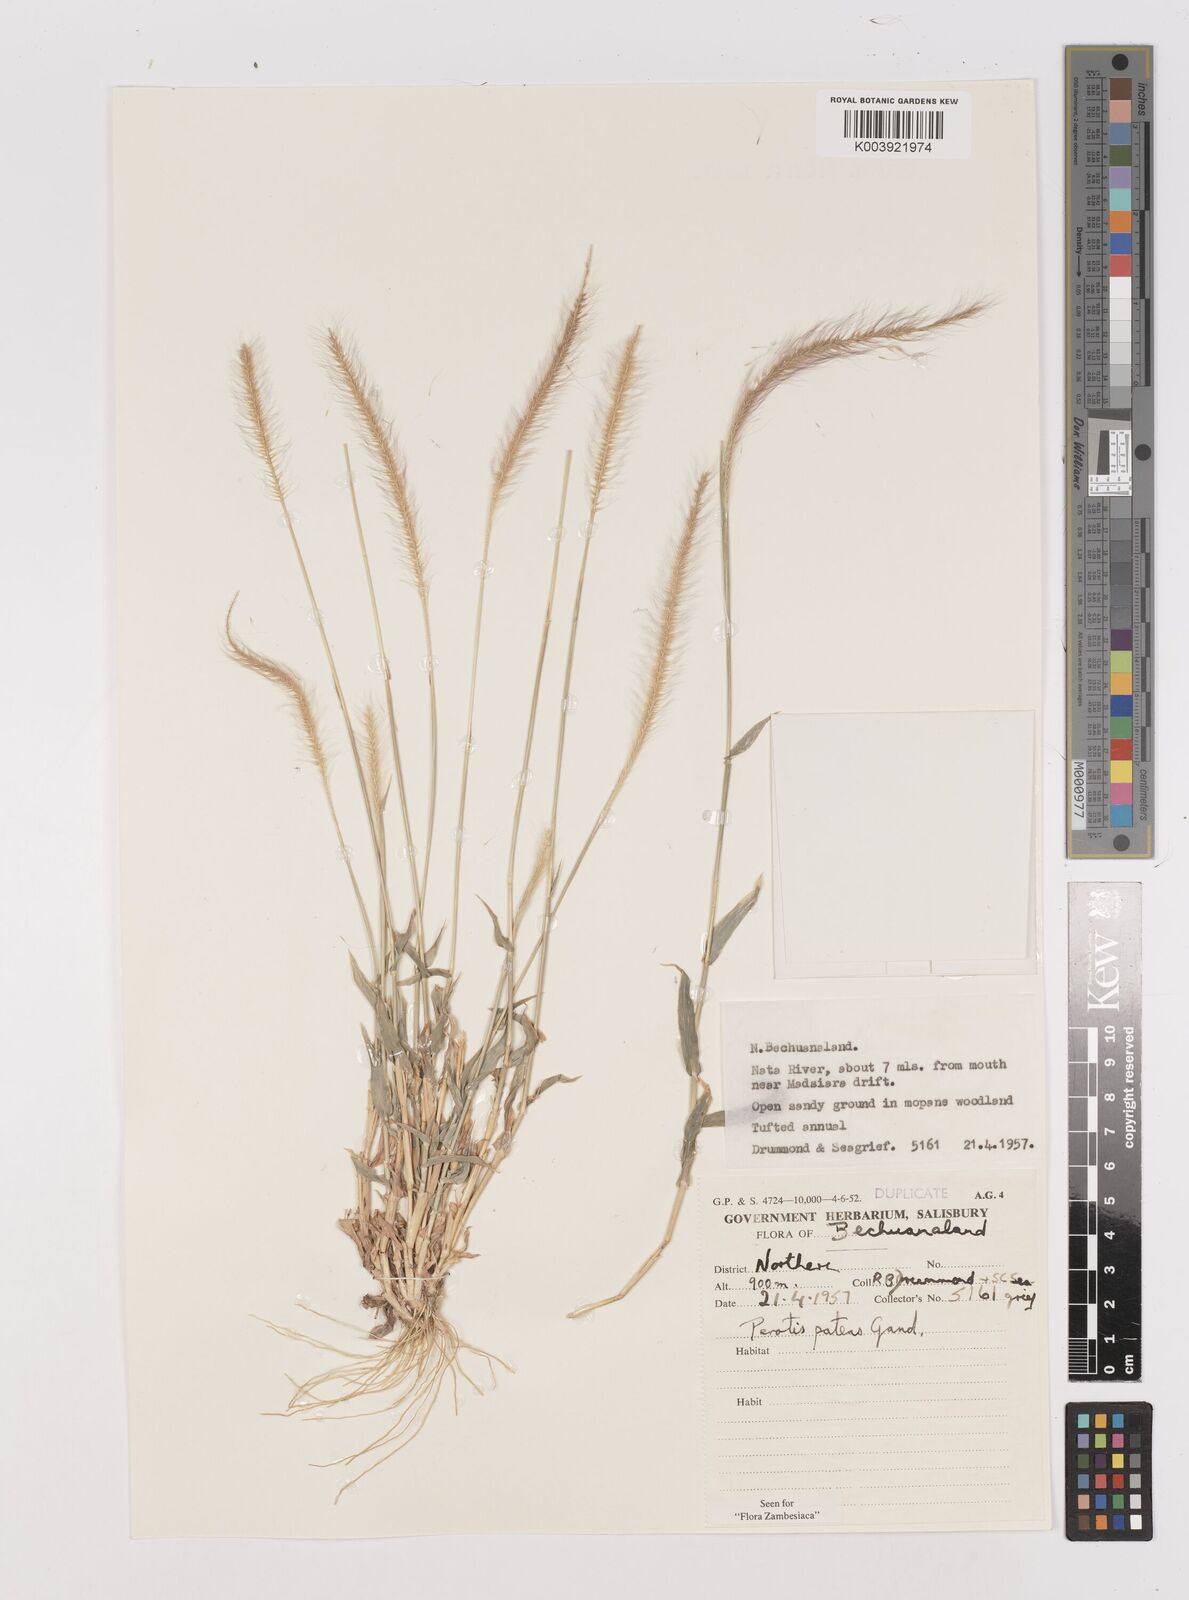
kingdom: Plantae
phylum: Tracheophyta
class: Liliopsida
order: Poales
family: Poaceae
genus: Perotis
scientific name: Perotis patens
